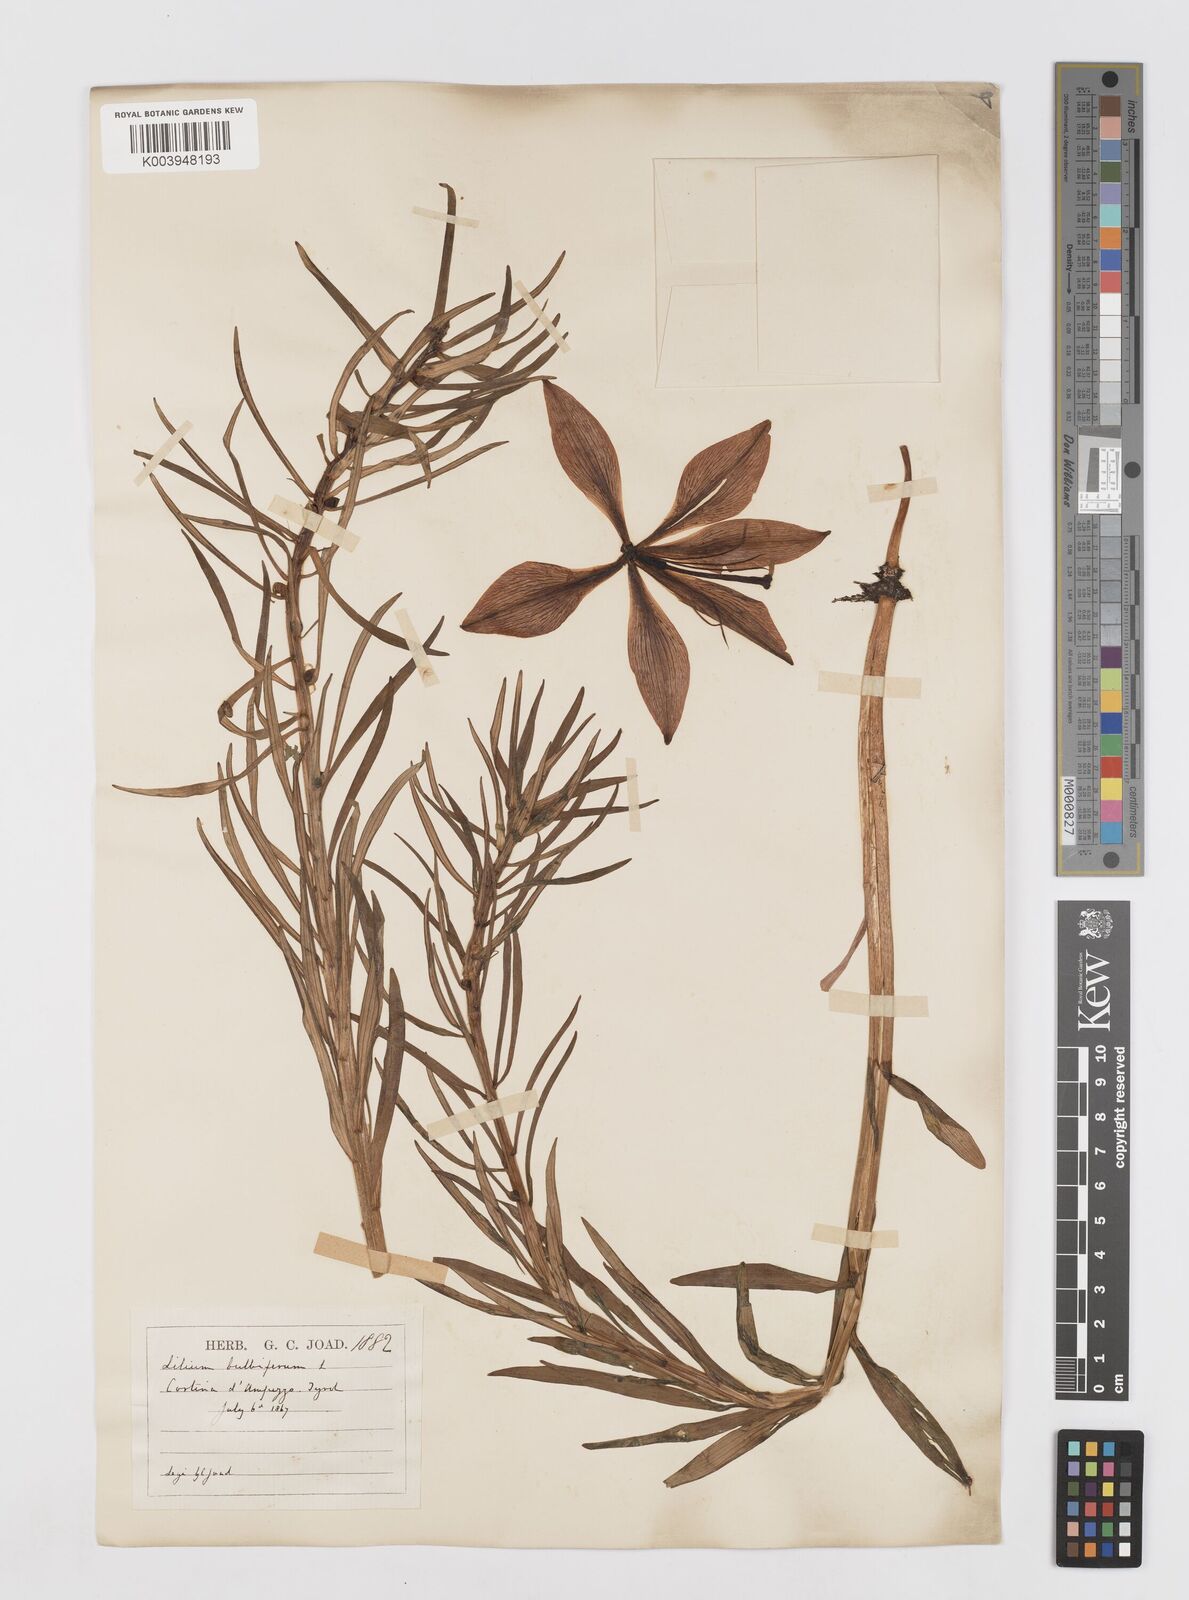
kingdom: Plantae
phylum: Tracheophyta
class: Liliopsida
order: Liliales
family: Liliaceae
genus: Lilium
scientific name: Lilium bulbiferum
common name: Orange lily
